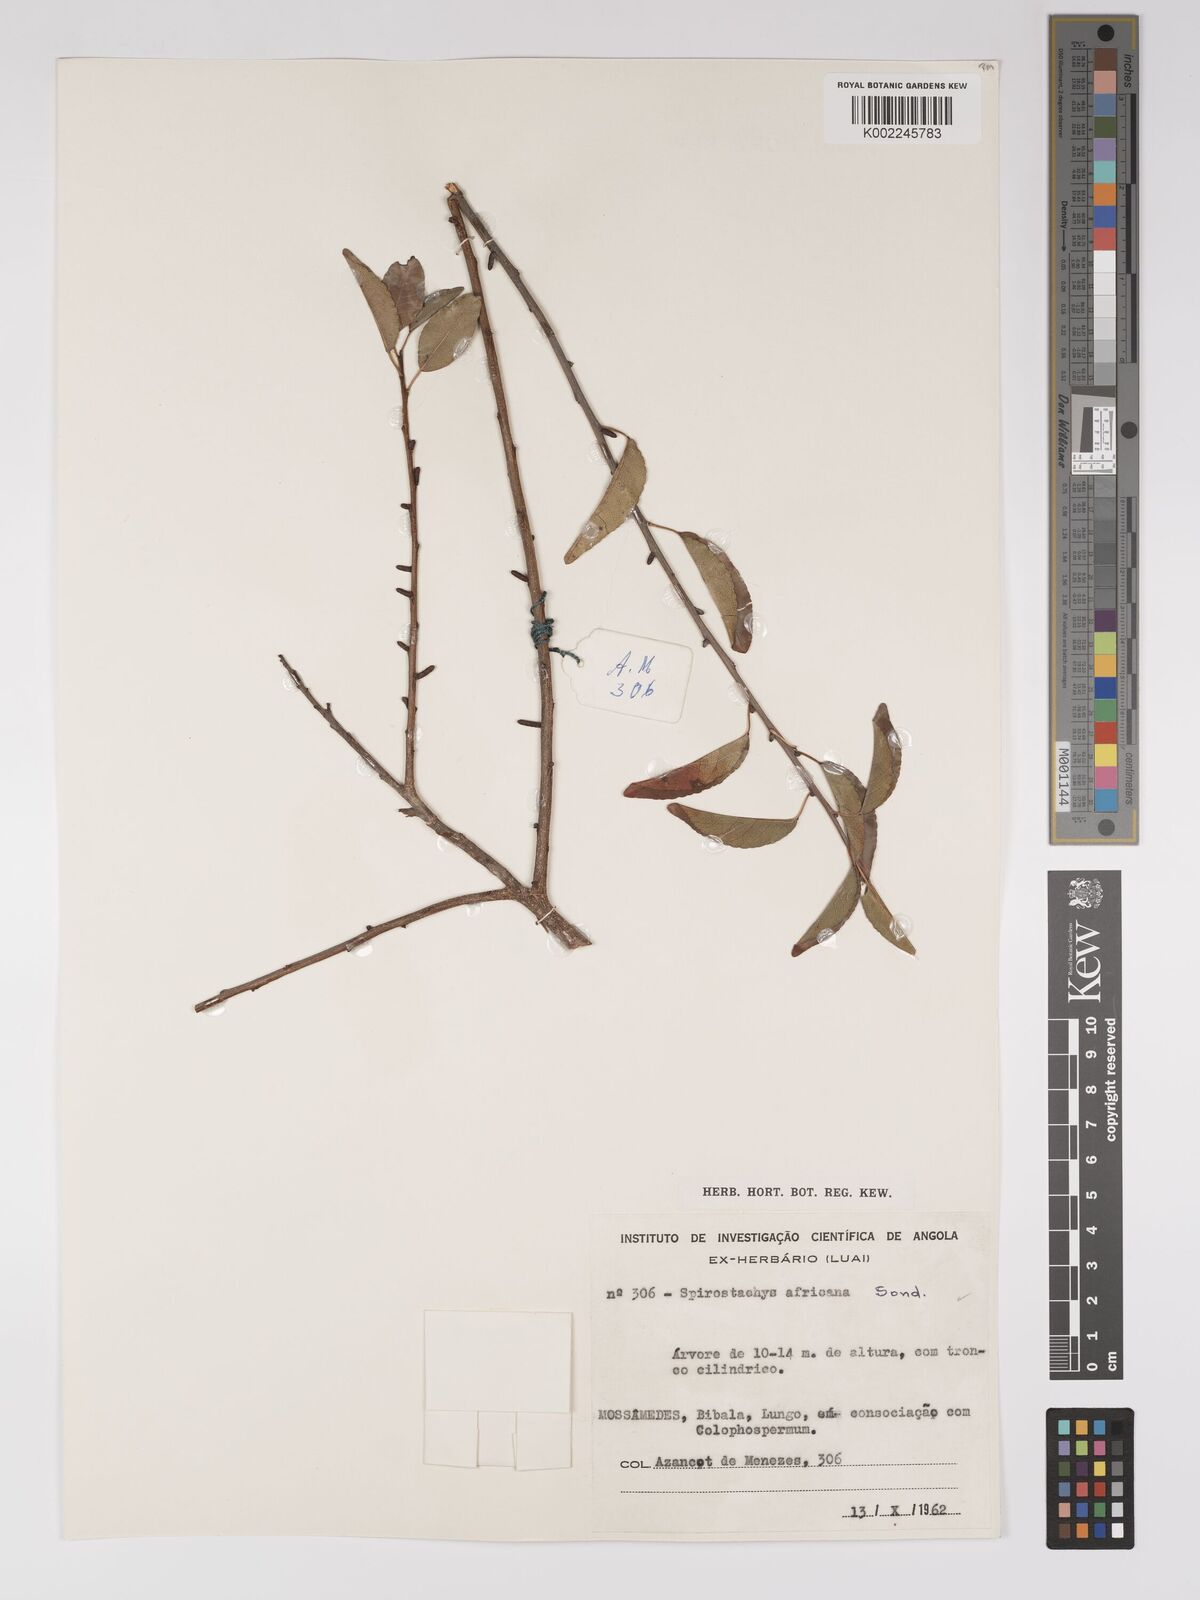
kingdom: Plantae
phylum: Tracheophyta
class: Magnoliopsida
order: Malpighiales
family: Euphorbiaceae
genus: Spirostachys
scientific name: Spirostachys africana
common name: Tamboti
